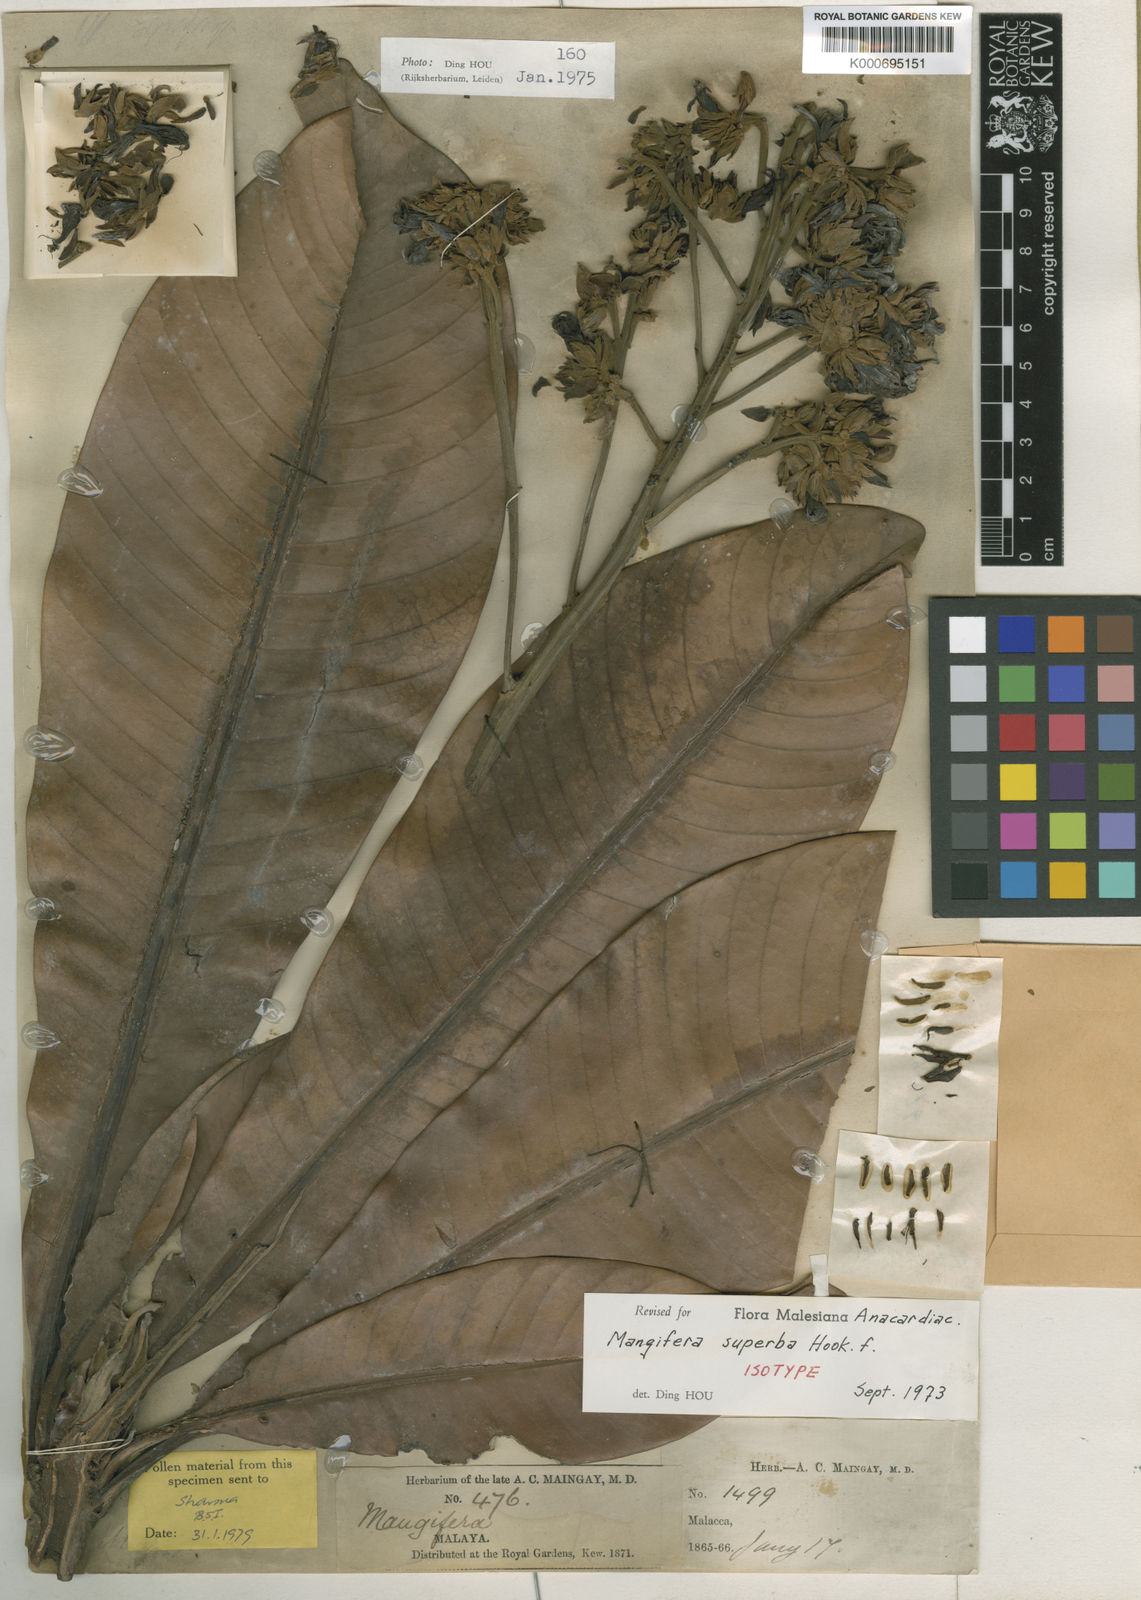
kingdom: Plantae
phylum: Tracheophyta
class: Magnoliopsida
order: Sapindales
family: Anacardiaceae
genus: Mangifera
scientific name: Mangifera superba
